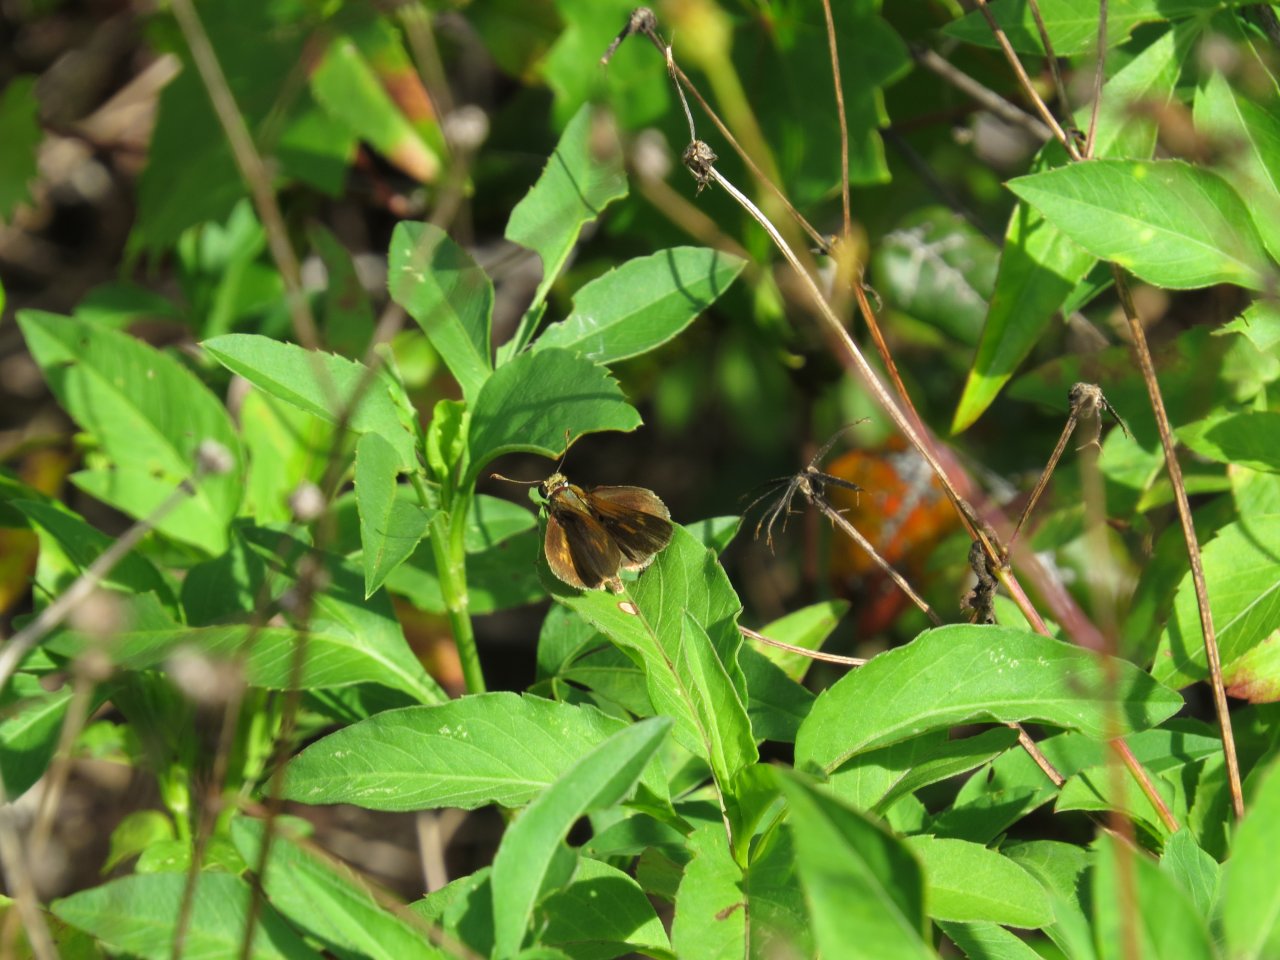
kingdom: Animalia
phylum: Arthropoda
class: Insecta
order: Lepidoptera
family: Hesperiidae
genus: Wallengrenia
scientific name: Wallengrenia otho
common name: Southern Broken-Dash
